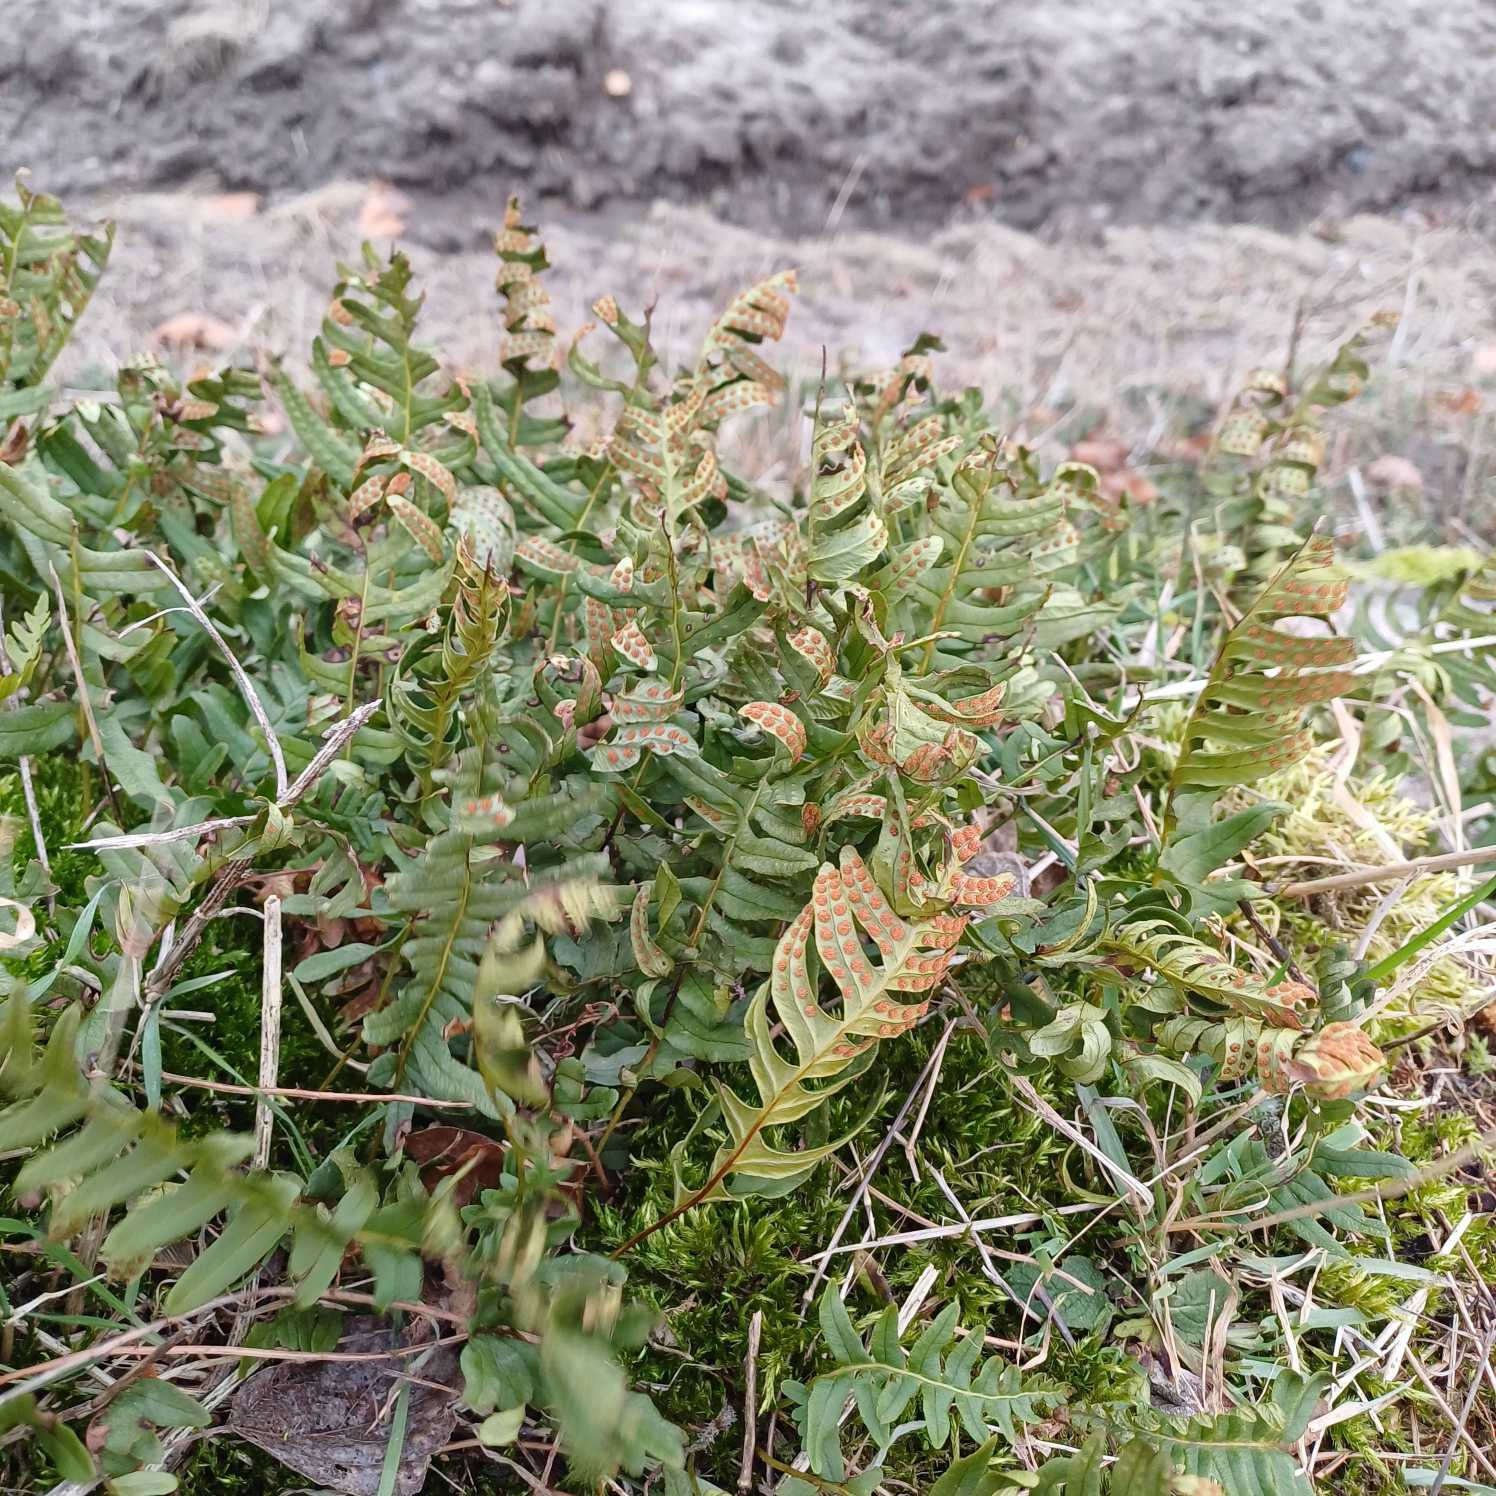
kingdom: Plantae
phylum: Tracheophyta
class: Polypodiopsida
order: Polypodiales
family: Polypodiaceae
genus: Polypodium
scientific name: Polypodium vulgare
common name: Almindelig engelsød
